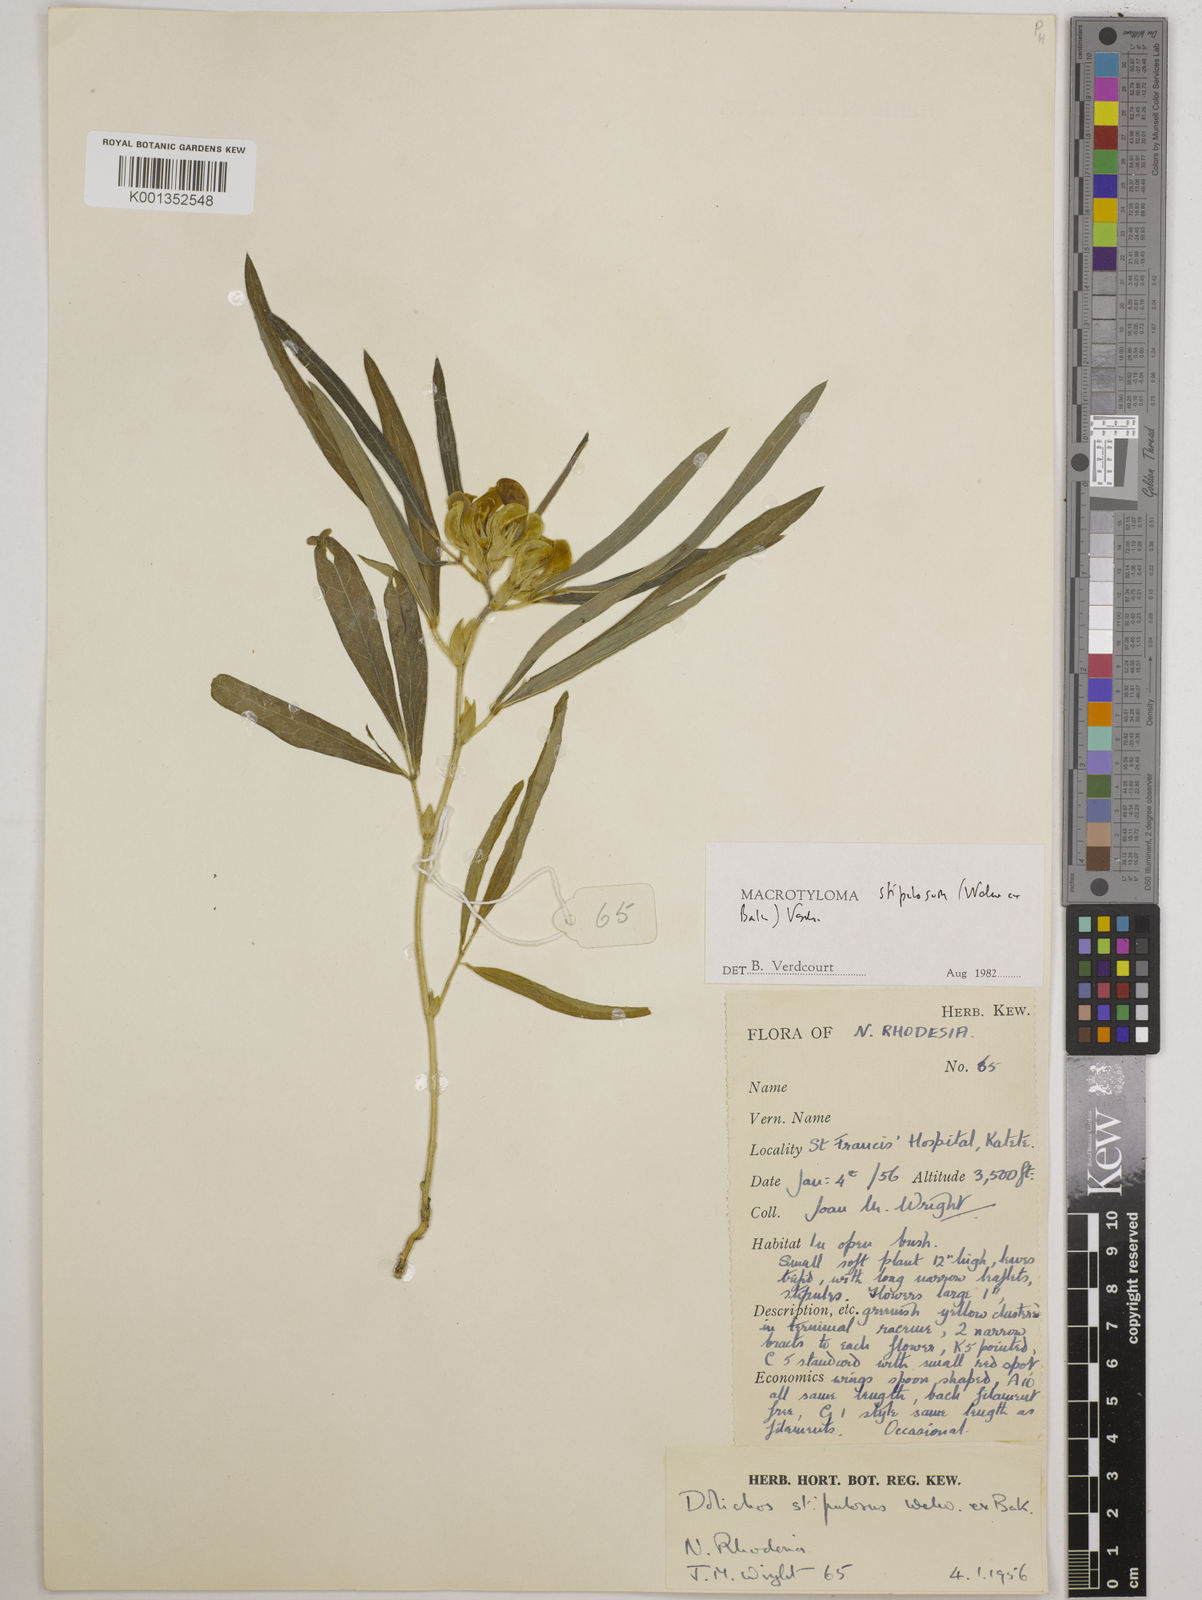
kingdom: Plantae
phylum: Tracheophyta
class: Magnoliopsida
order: Fabales
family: Fabaceae
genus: Macrotyloma
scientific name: Macrotyloma stipulosum
